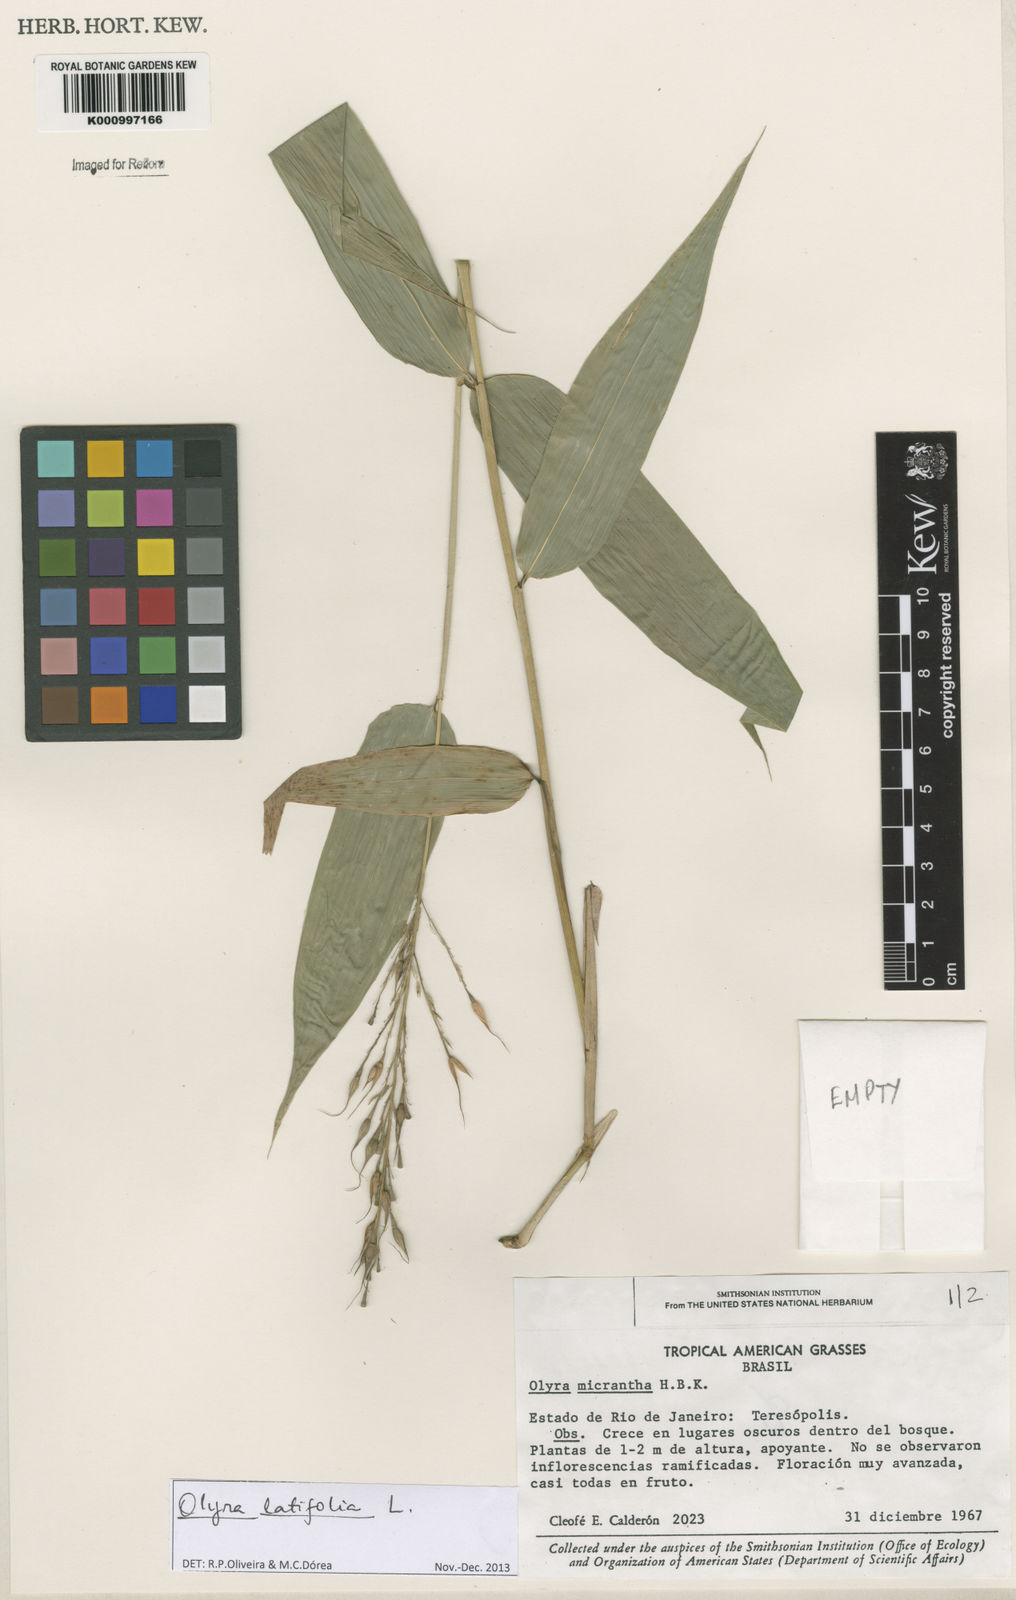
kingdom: Plantae
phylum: Tracheophyta
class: Liliopsida
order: Poales
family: Poaceae
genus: Olyra
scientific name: Olyra latifolia
